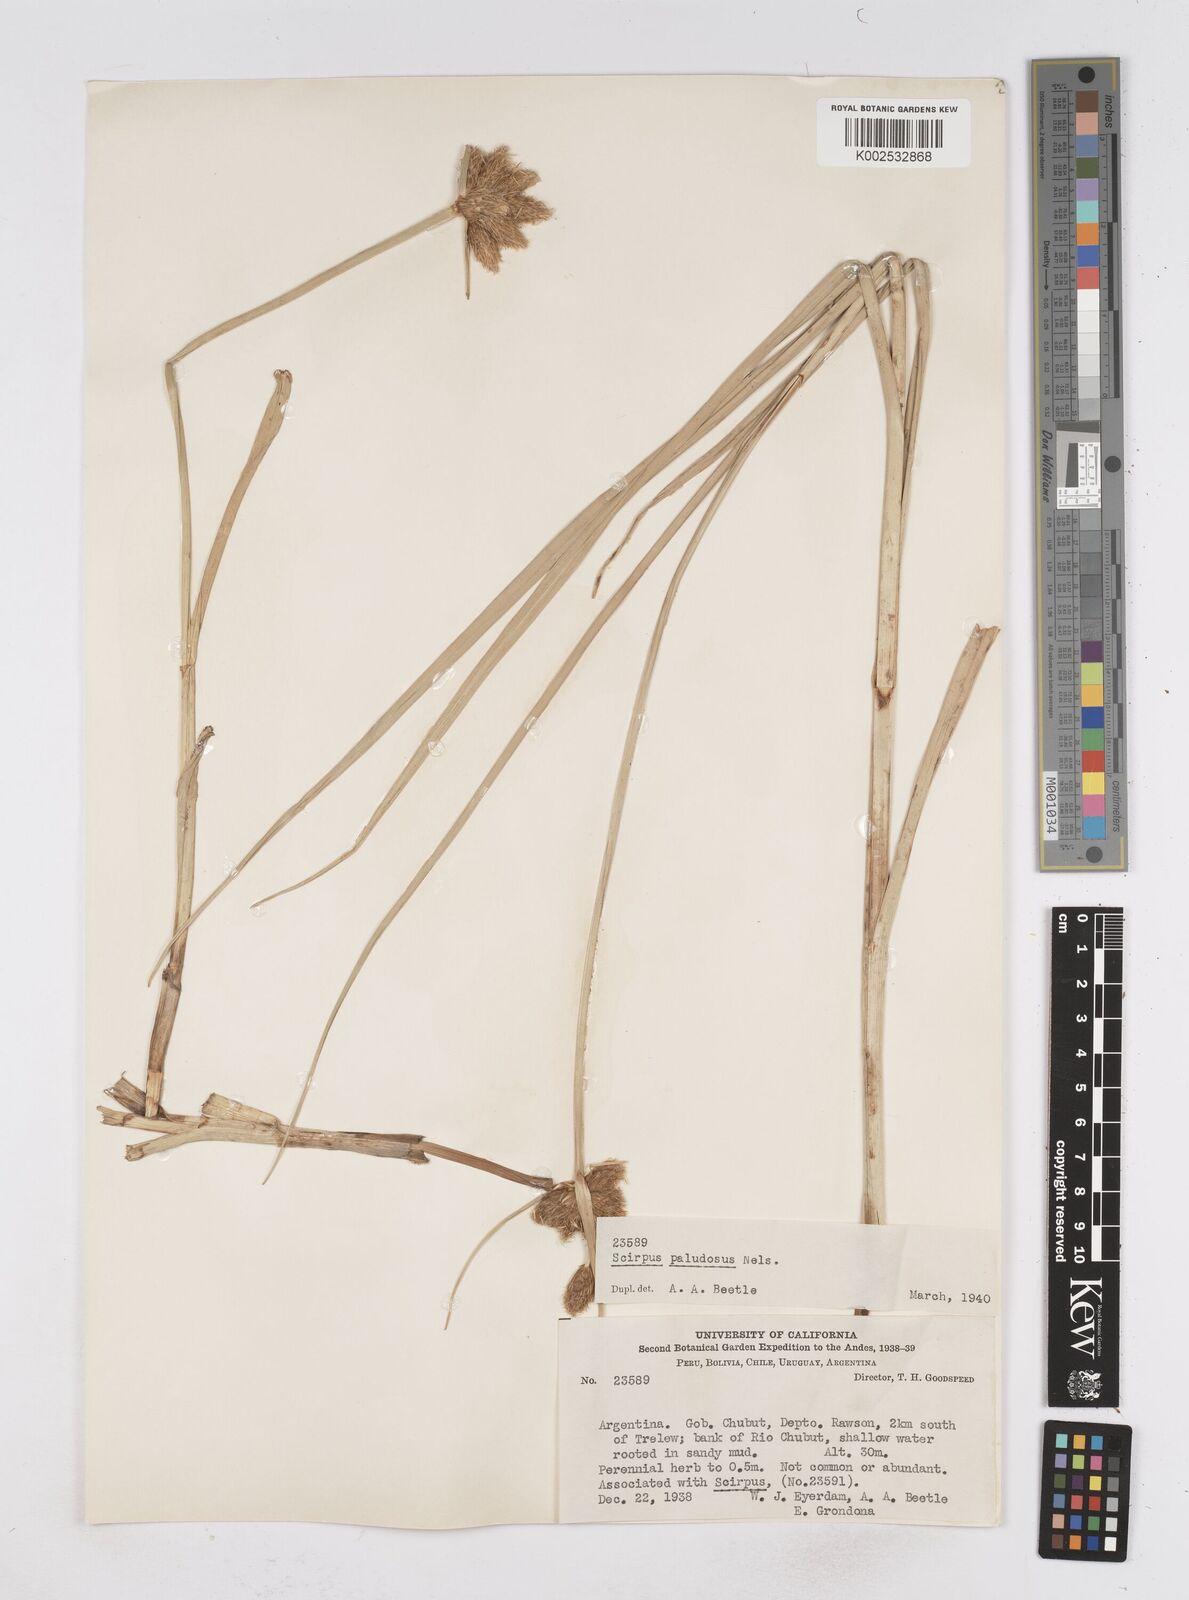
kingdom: Plantae
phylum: Tracheophyta
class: Liliopsida
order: Poales
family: Cyperaceae
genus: Bolboschoenus
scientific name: Bolboschoenus maritimus
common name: Sea club-rush
